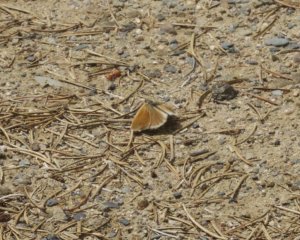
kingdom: Animalia
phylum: Arthropoda
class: Insecta
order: Lepidoptera
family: Nymphalidae
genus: Coenonympha
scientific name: Coenonympha tullia
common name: Large Heath
